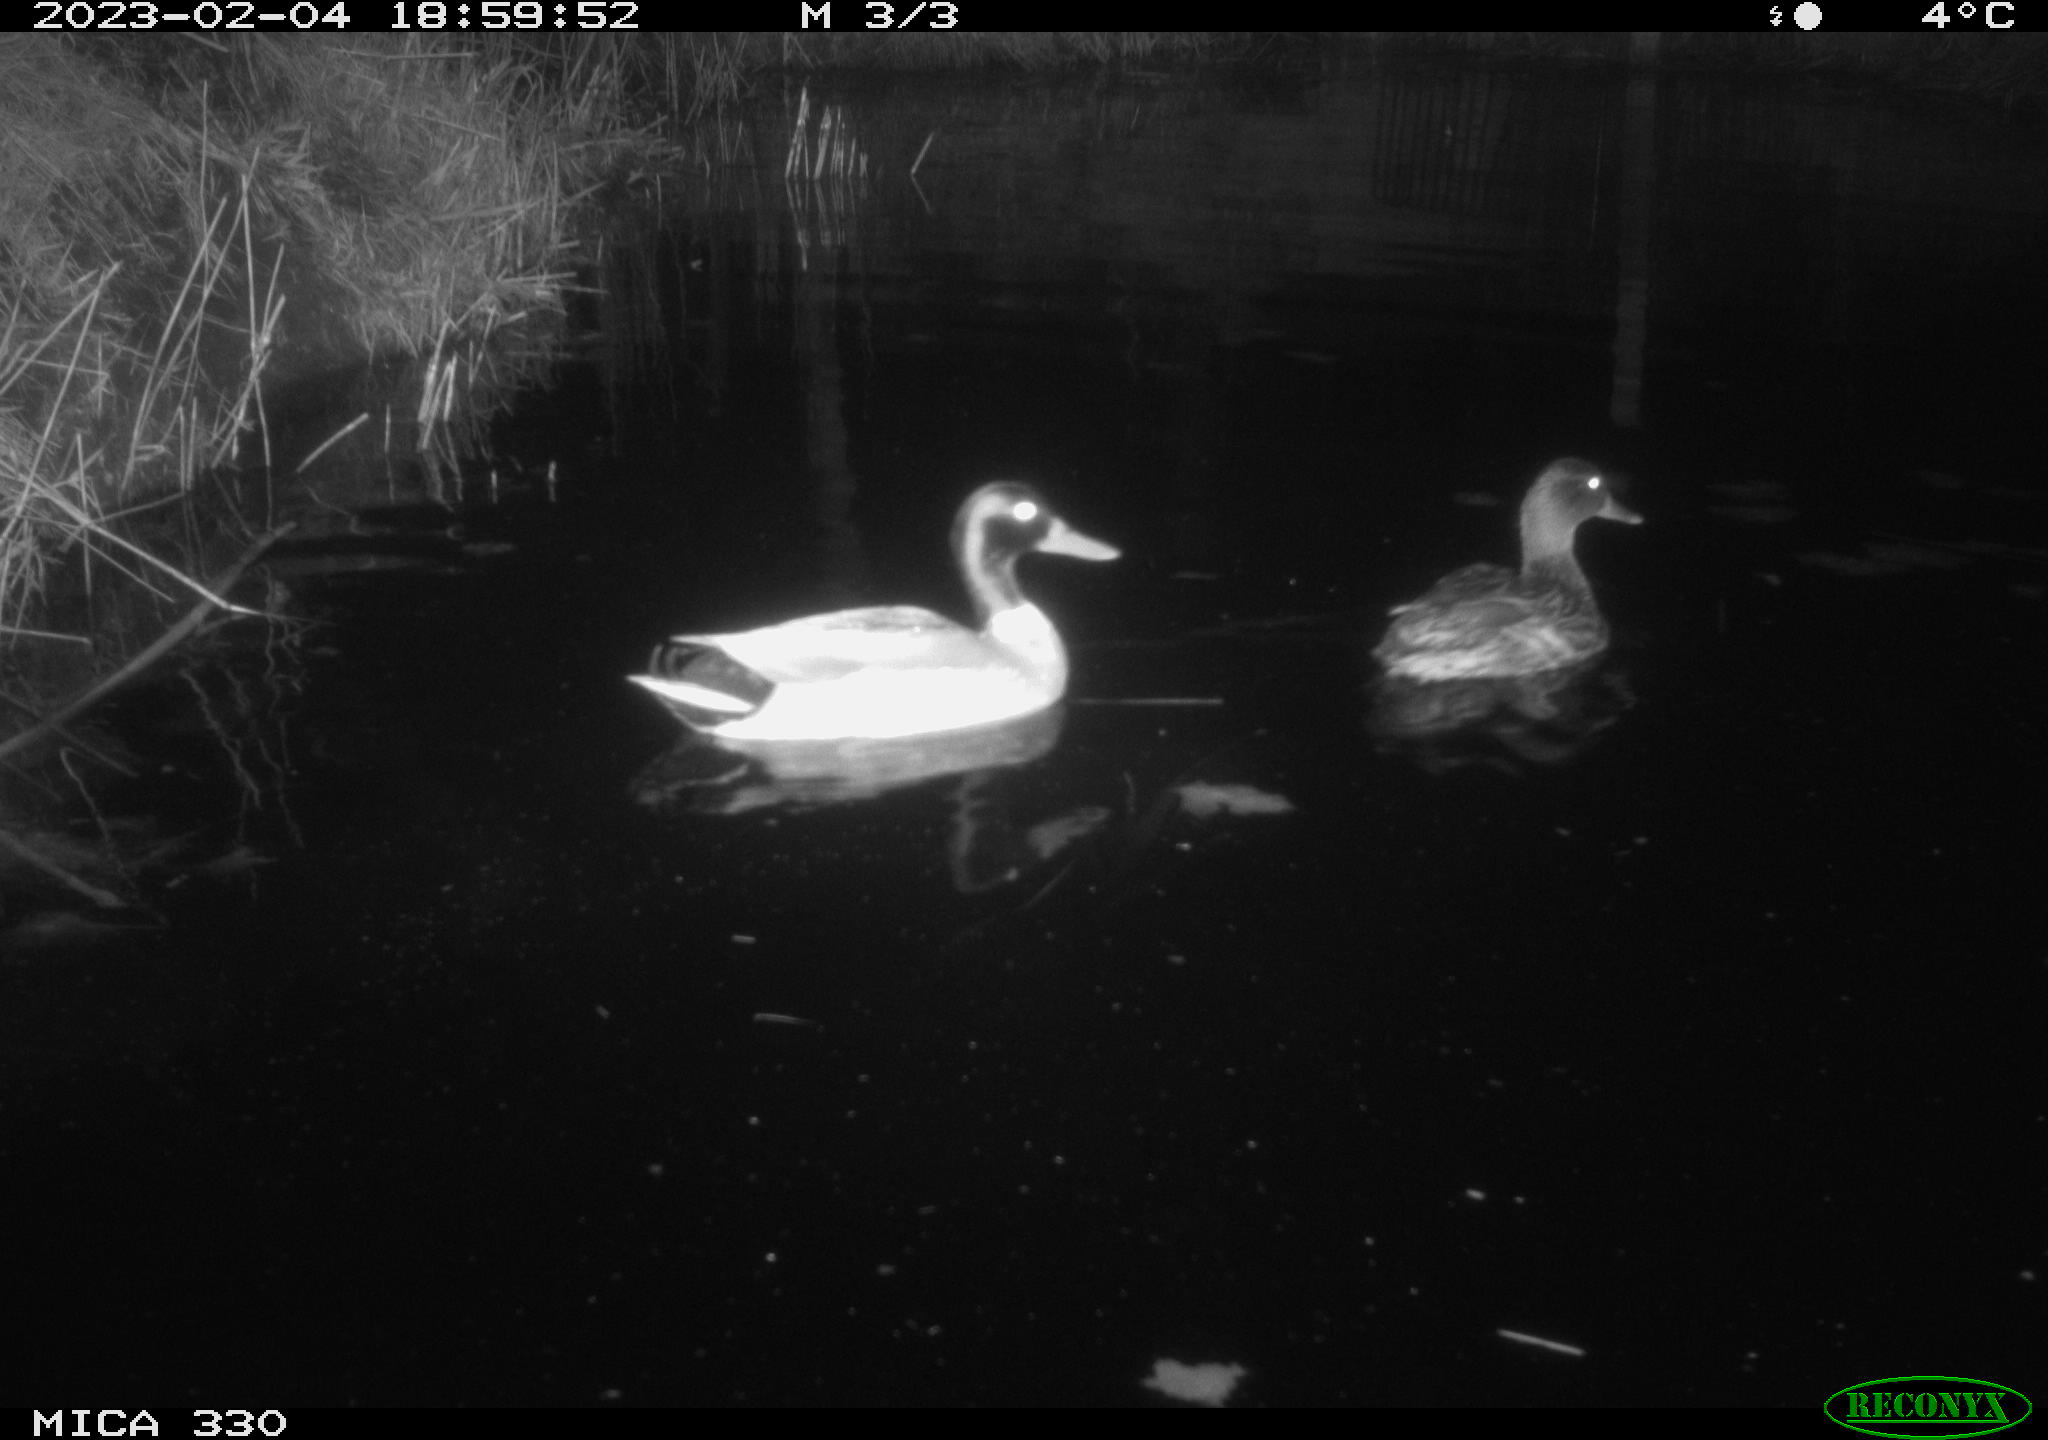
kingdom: Animalia
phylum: Chordata
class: Aves
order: Anseriformes
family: Anatidae
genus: Anas
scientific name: Anas
